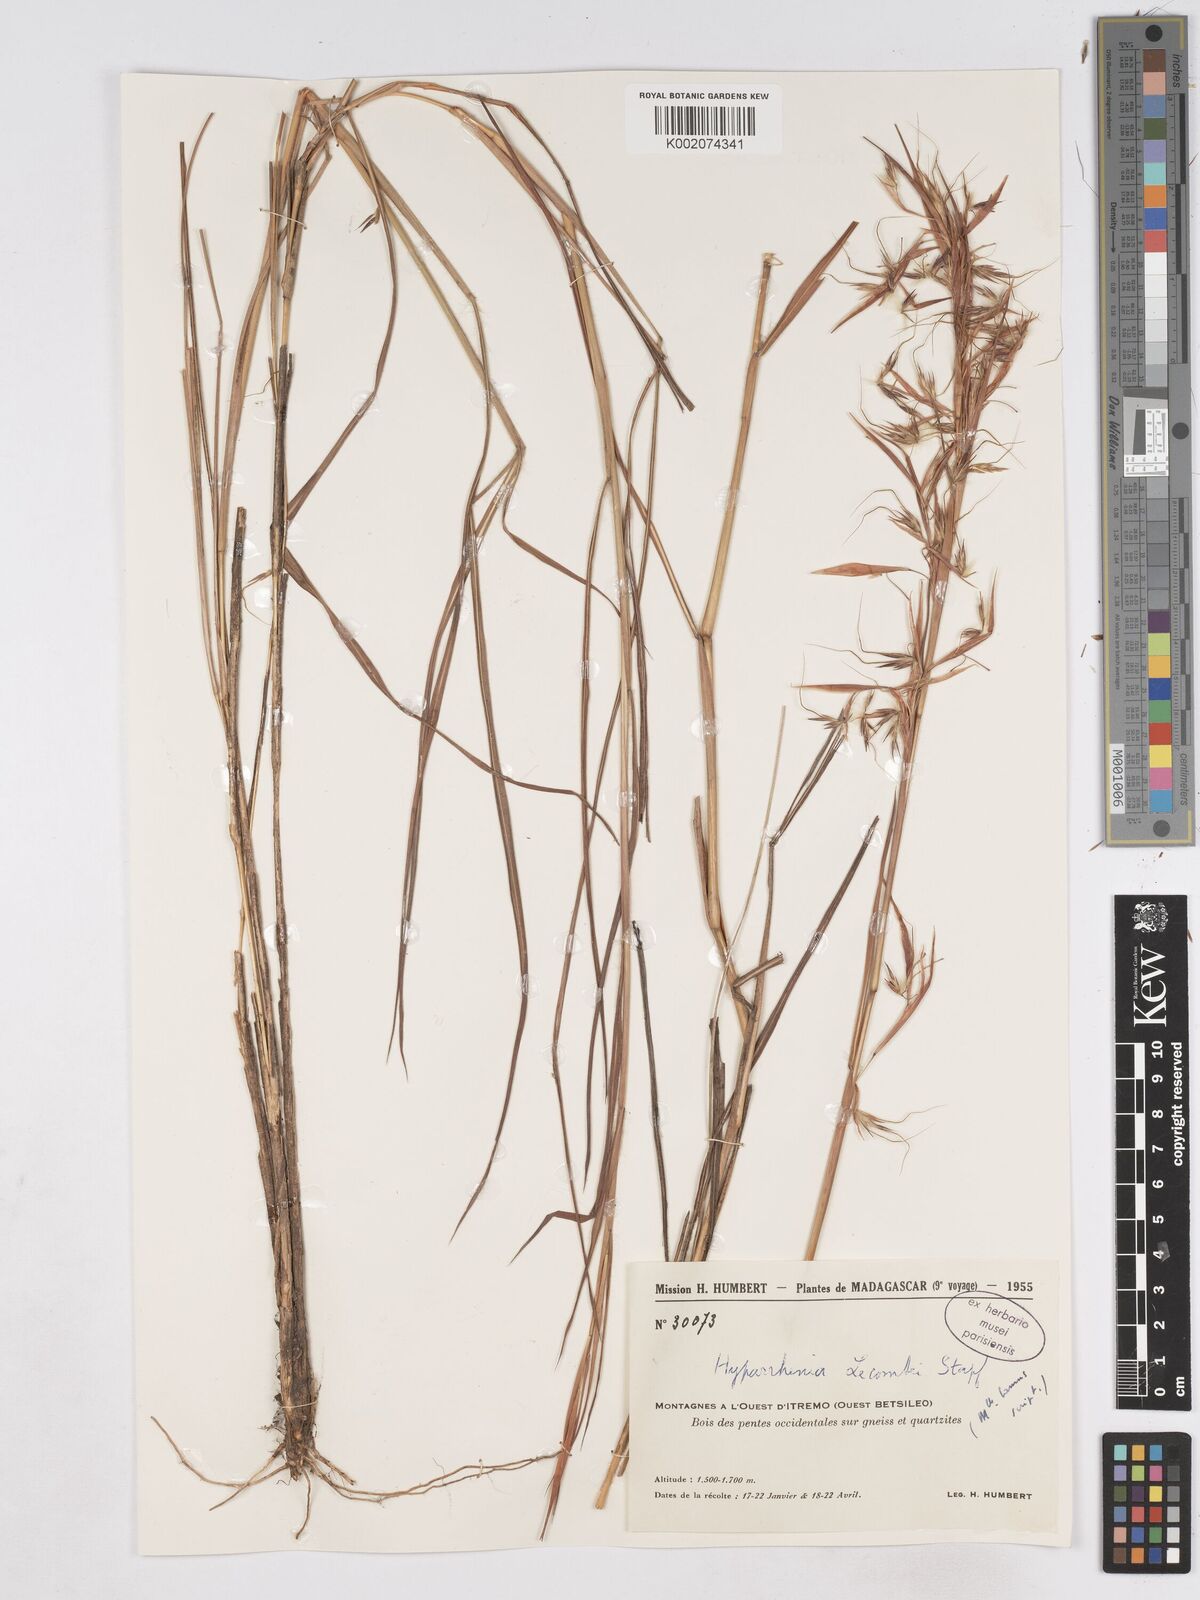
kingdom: Plantae
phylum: Tracheophyta
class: Liliopsida
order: Poales
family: Poaceae
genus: Hyparrhenia
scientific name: Hyparrhenia newtonii
